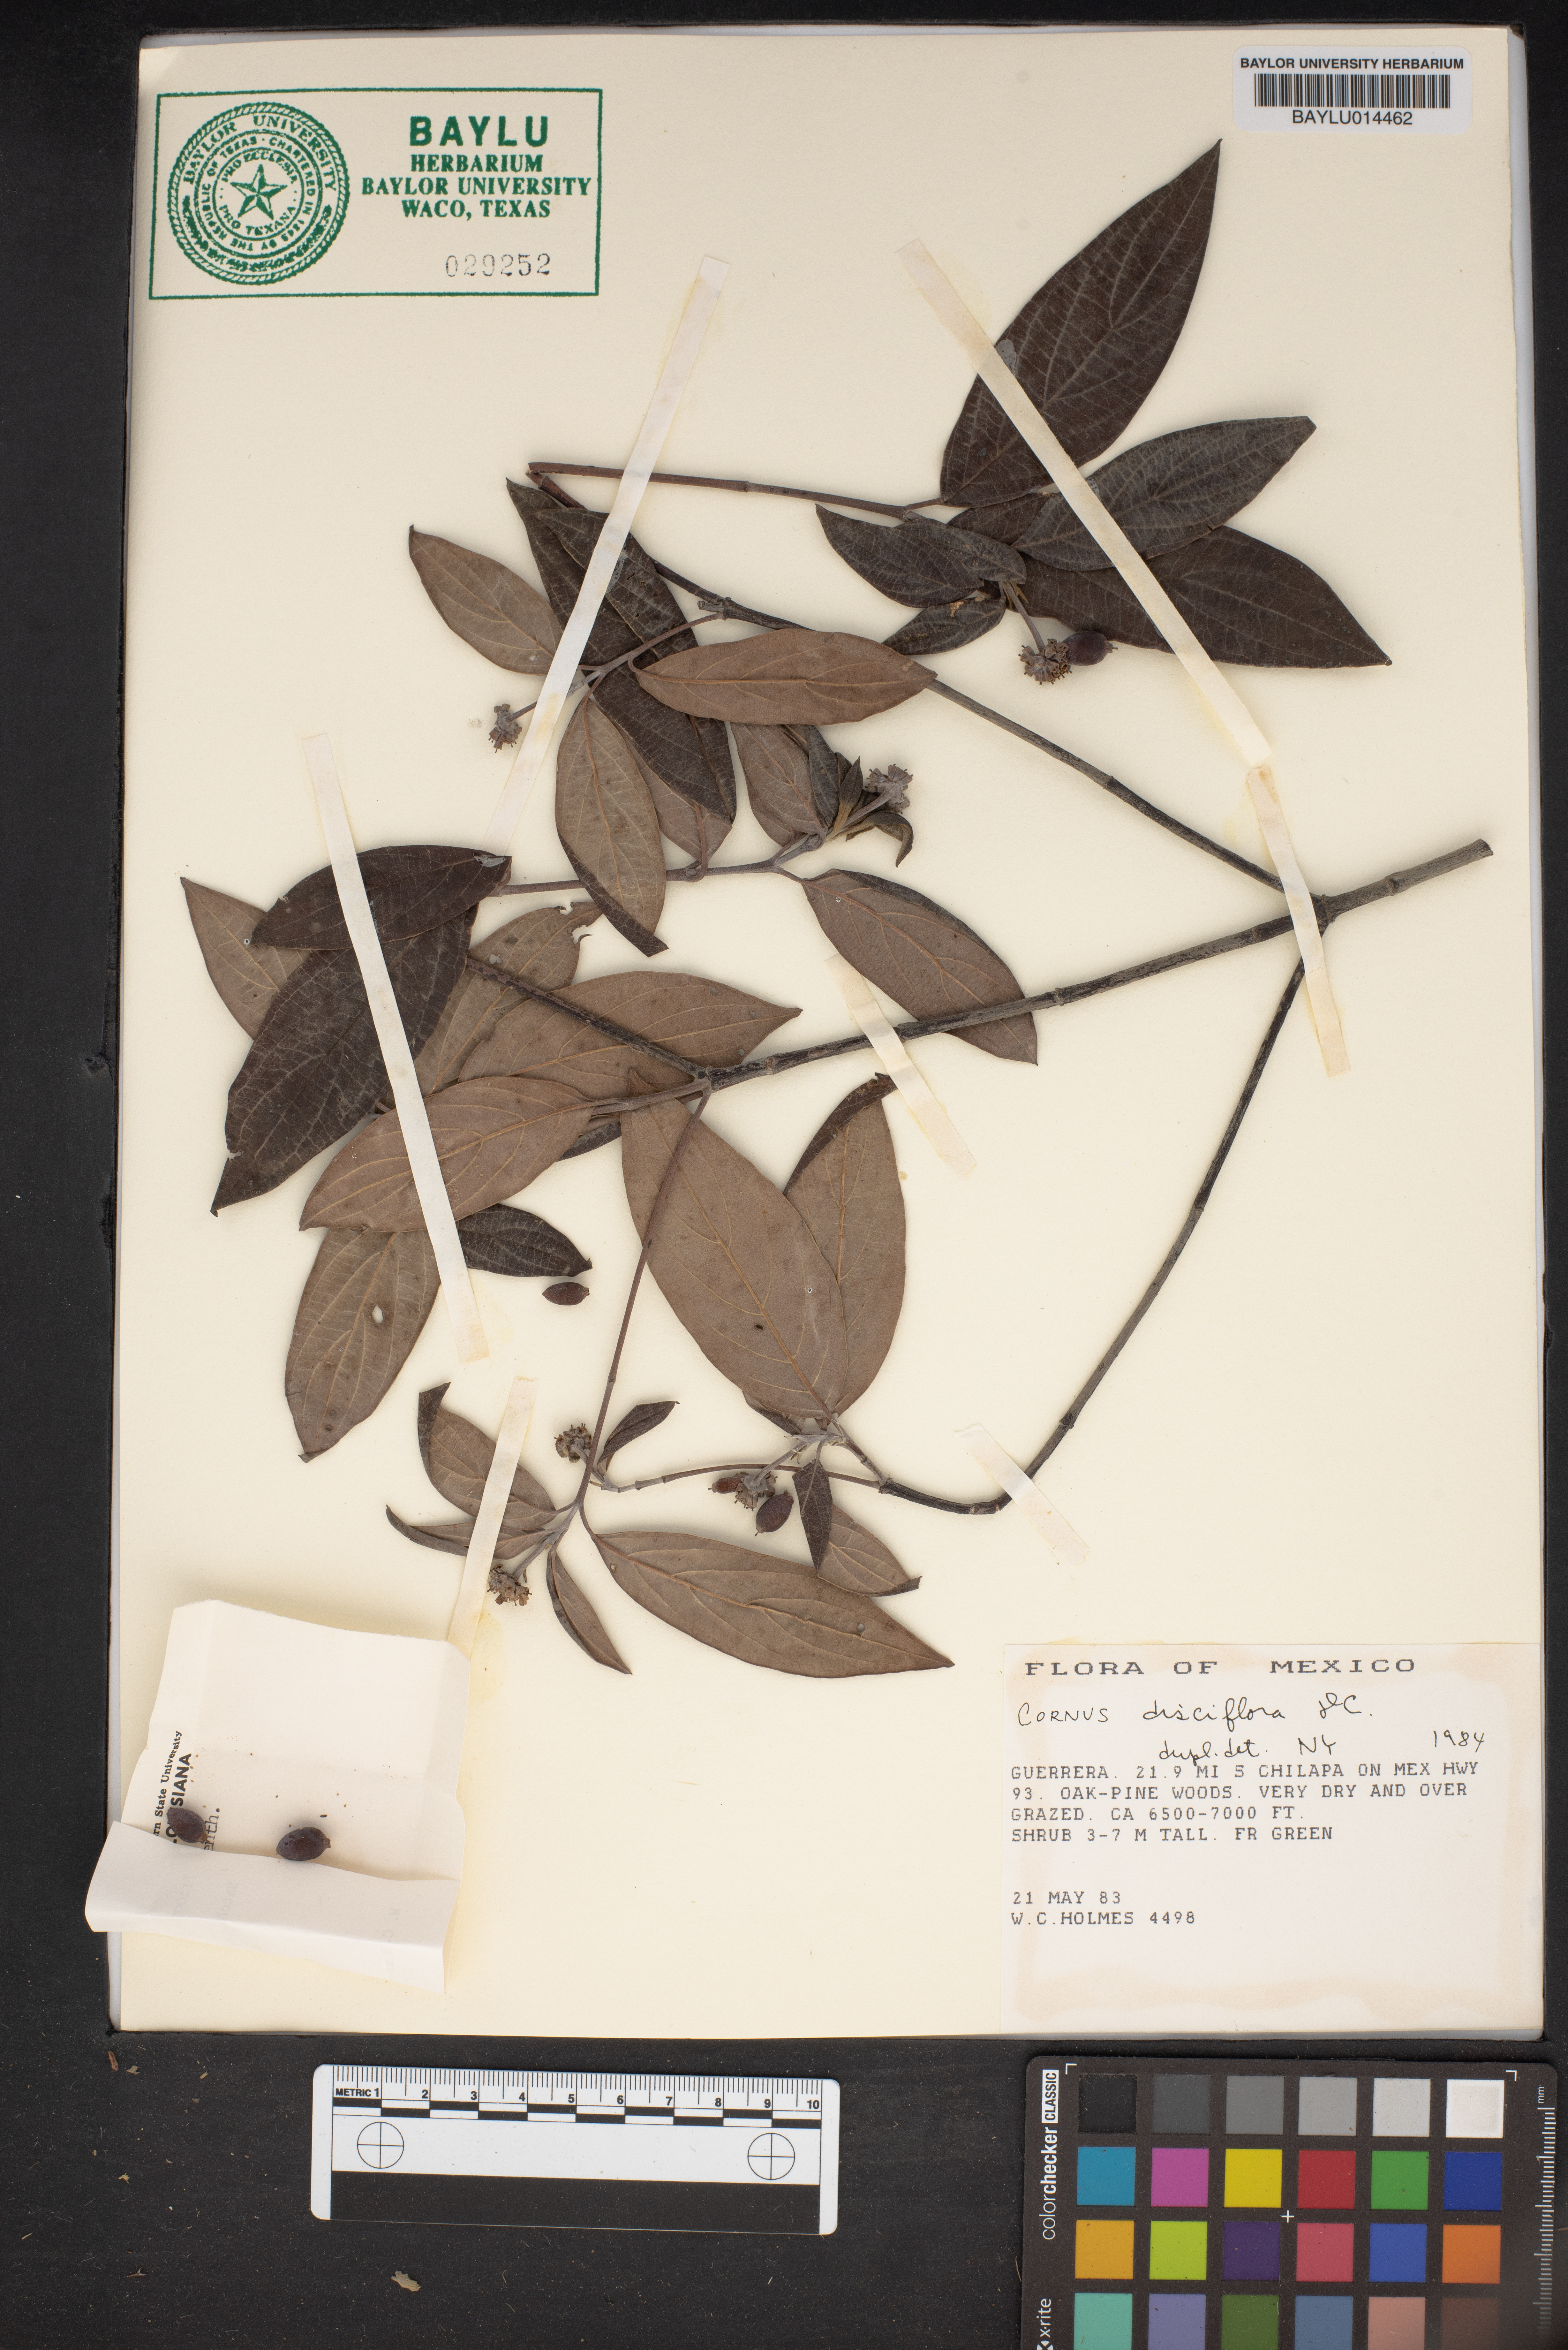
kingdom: Plantae
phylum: Tracheophyta
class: Magnoliopsida
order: Cornales
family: Cornaceae
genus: Cornus
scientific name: Cornus disciflora
